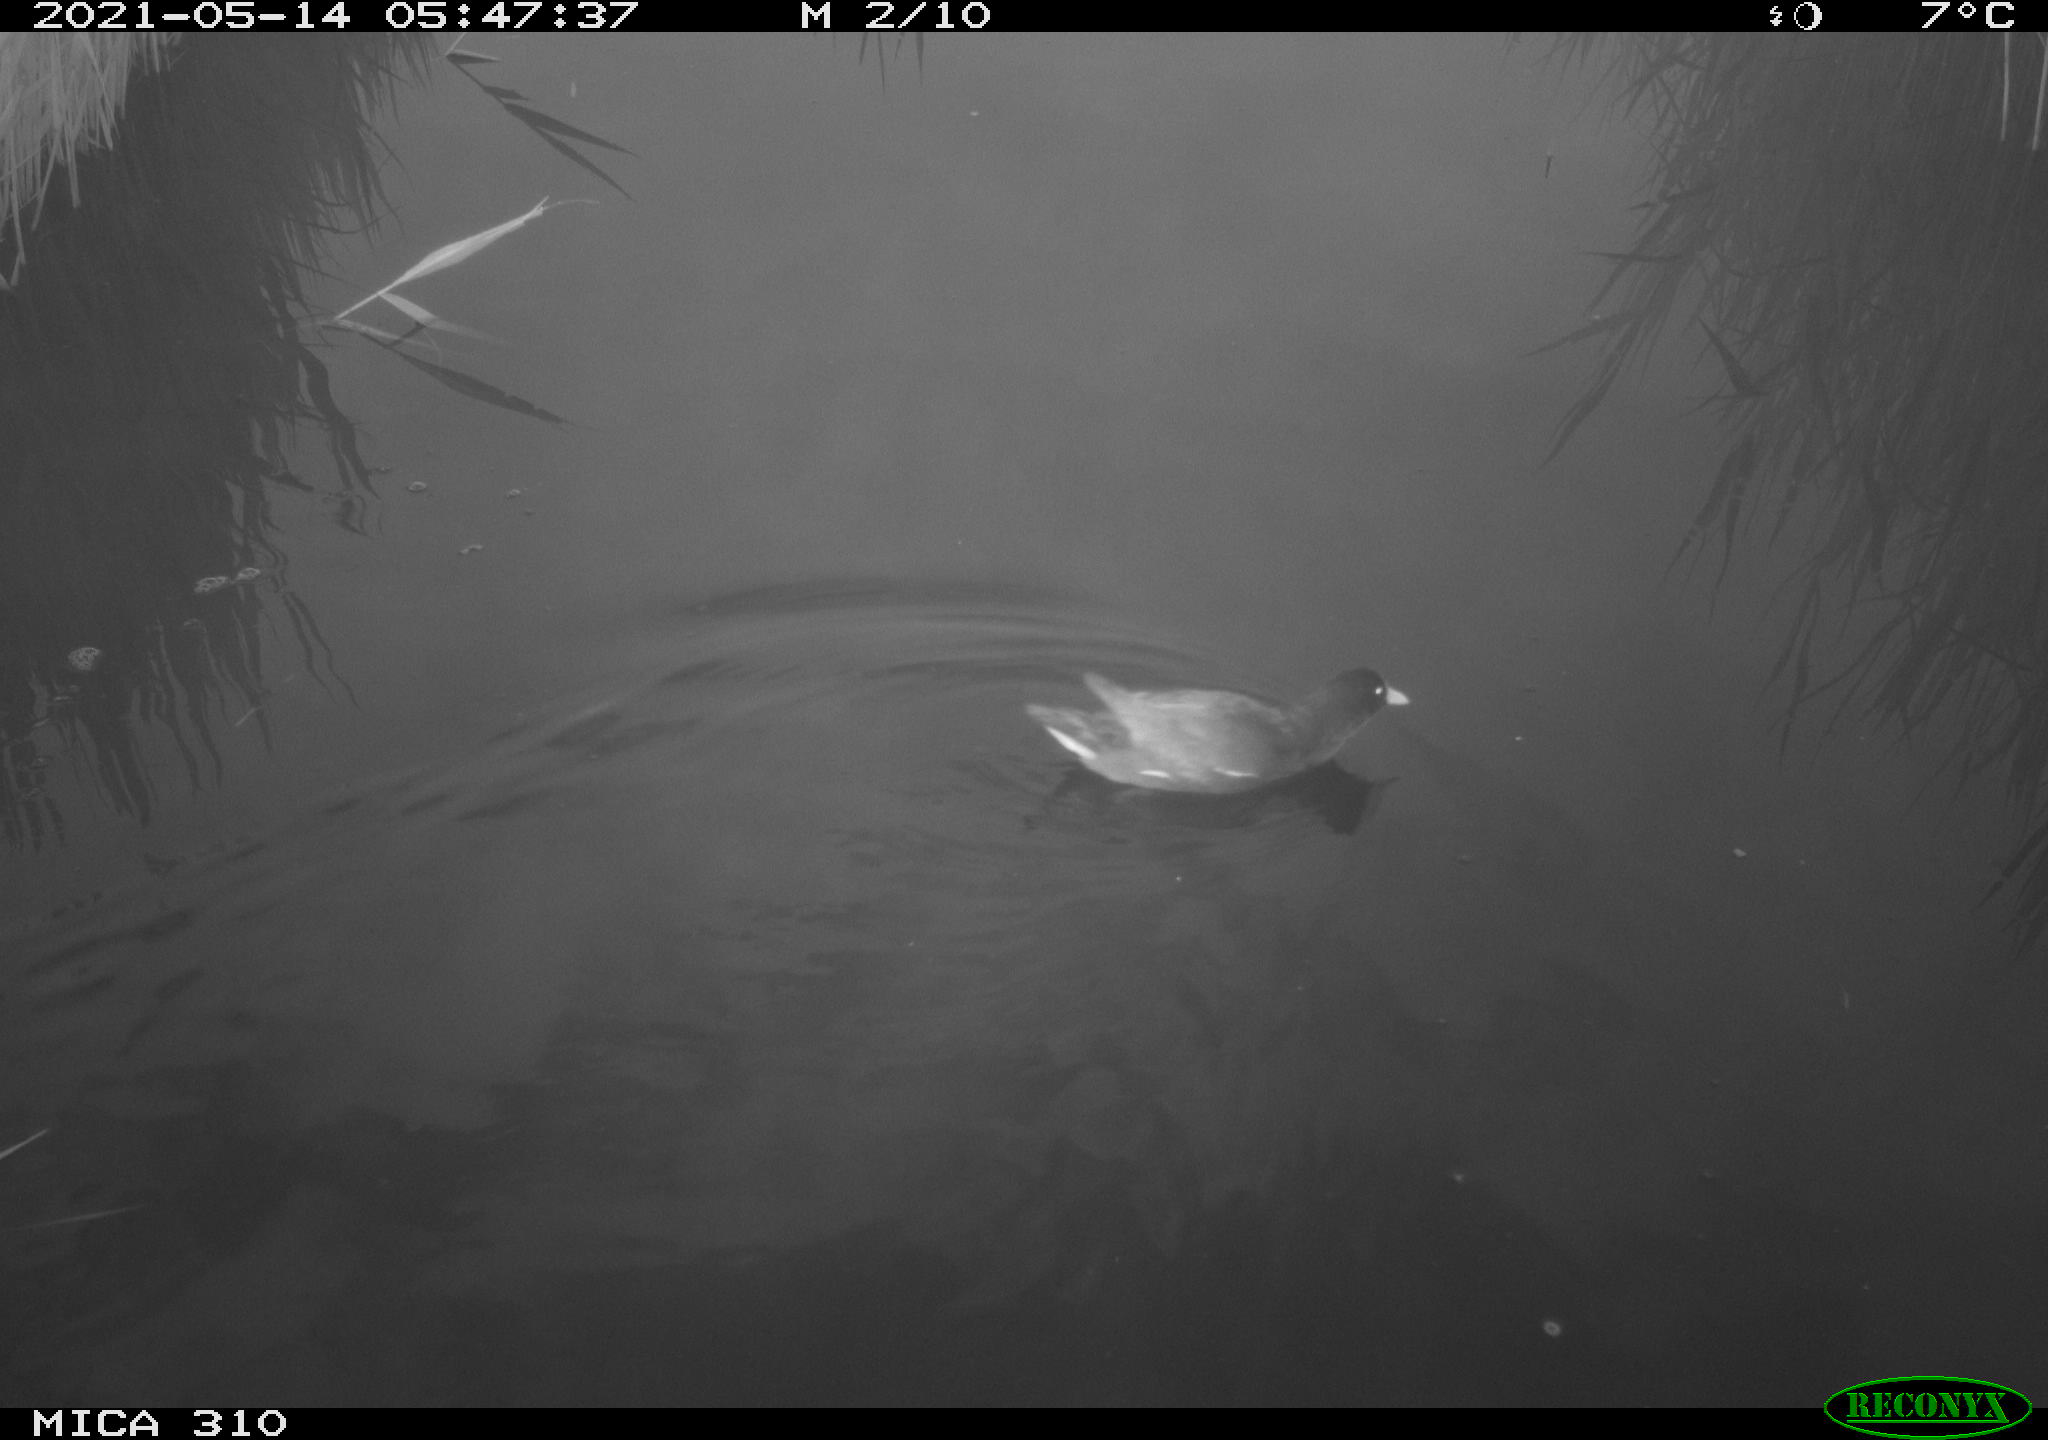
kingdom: Animalia
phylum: Chordata
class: Aves
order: Gruiformes
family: Rallidae
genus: Fulica
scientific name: Fulica atra
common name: Eurasian coot
